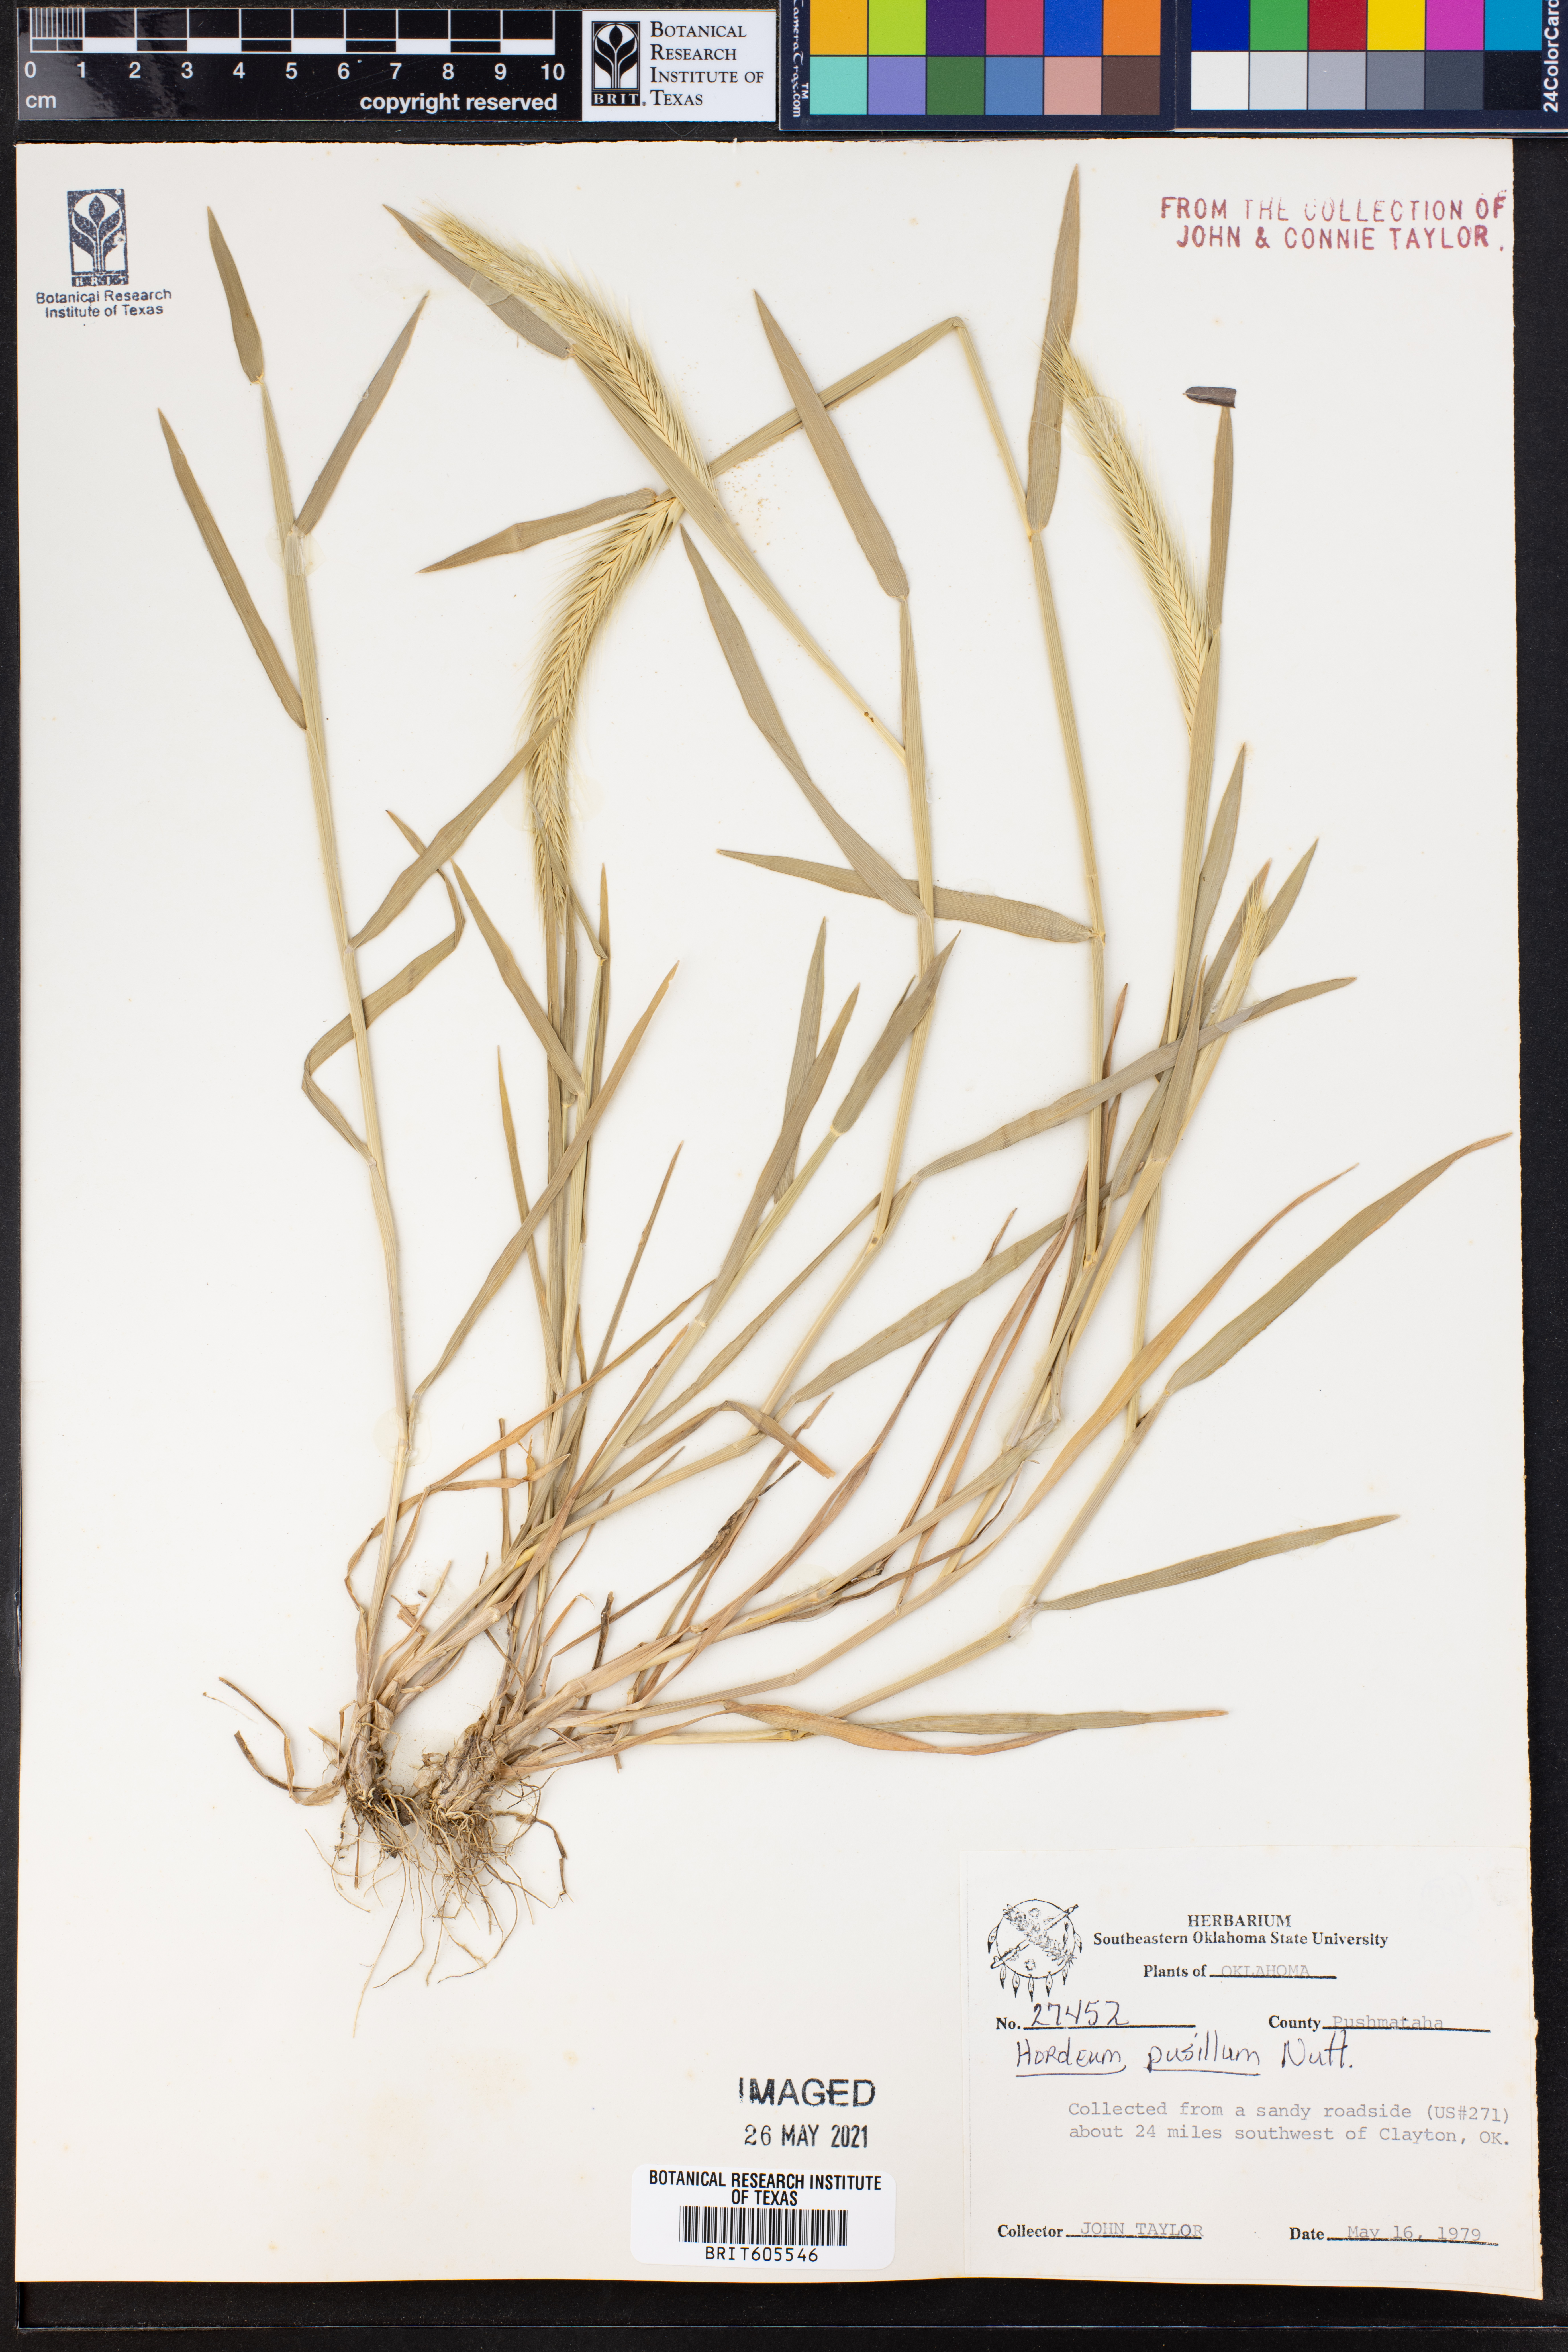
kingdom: Plantae
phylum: Tracheophyta
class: Liliopsida
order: Poales
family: Poaceae
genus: Hordeum
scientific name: Hordeum pusillum
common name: Little barley
